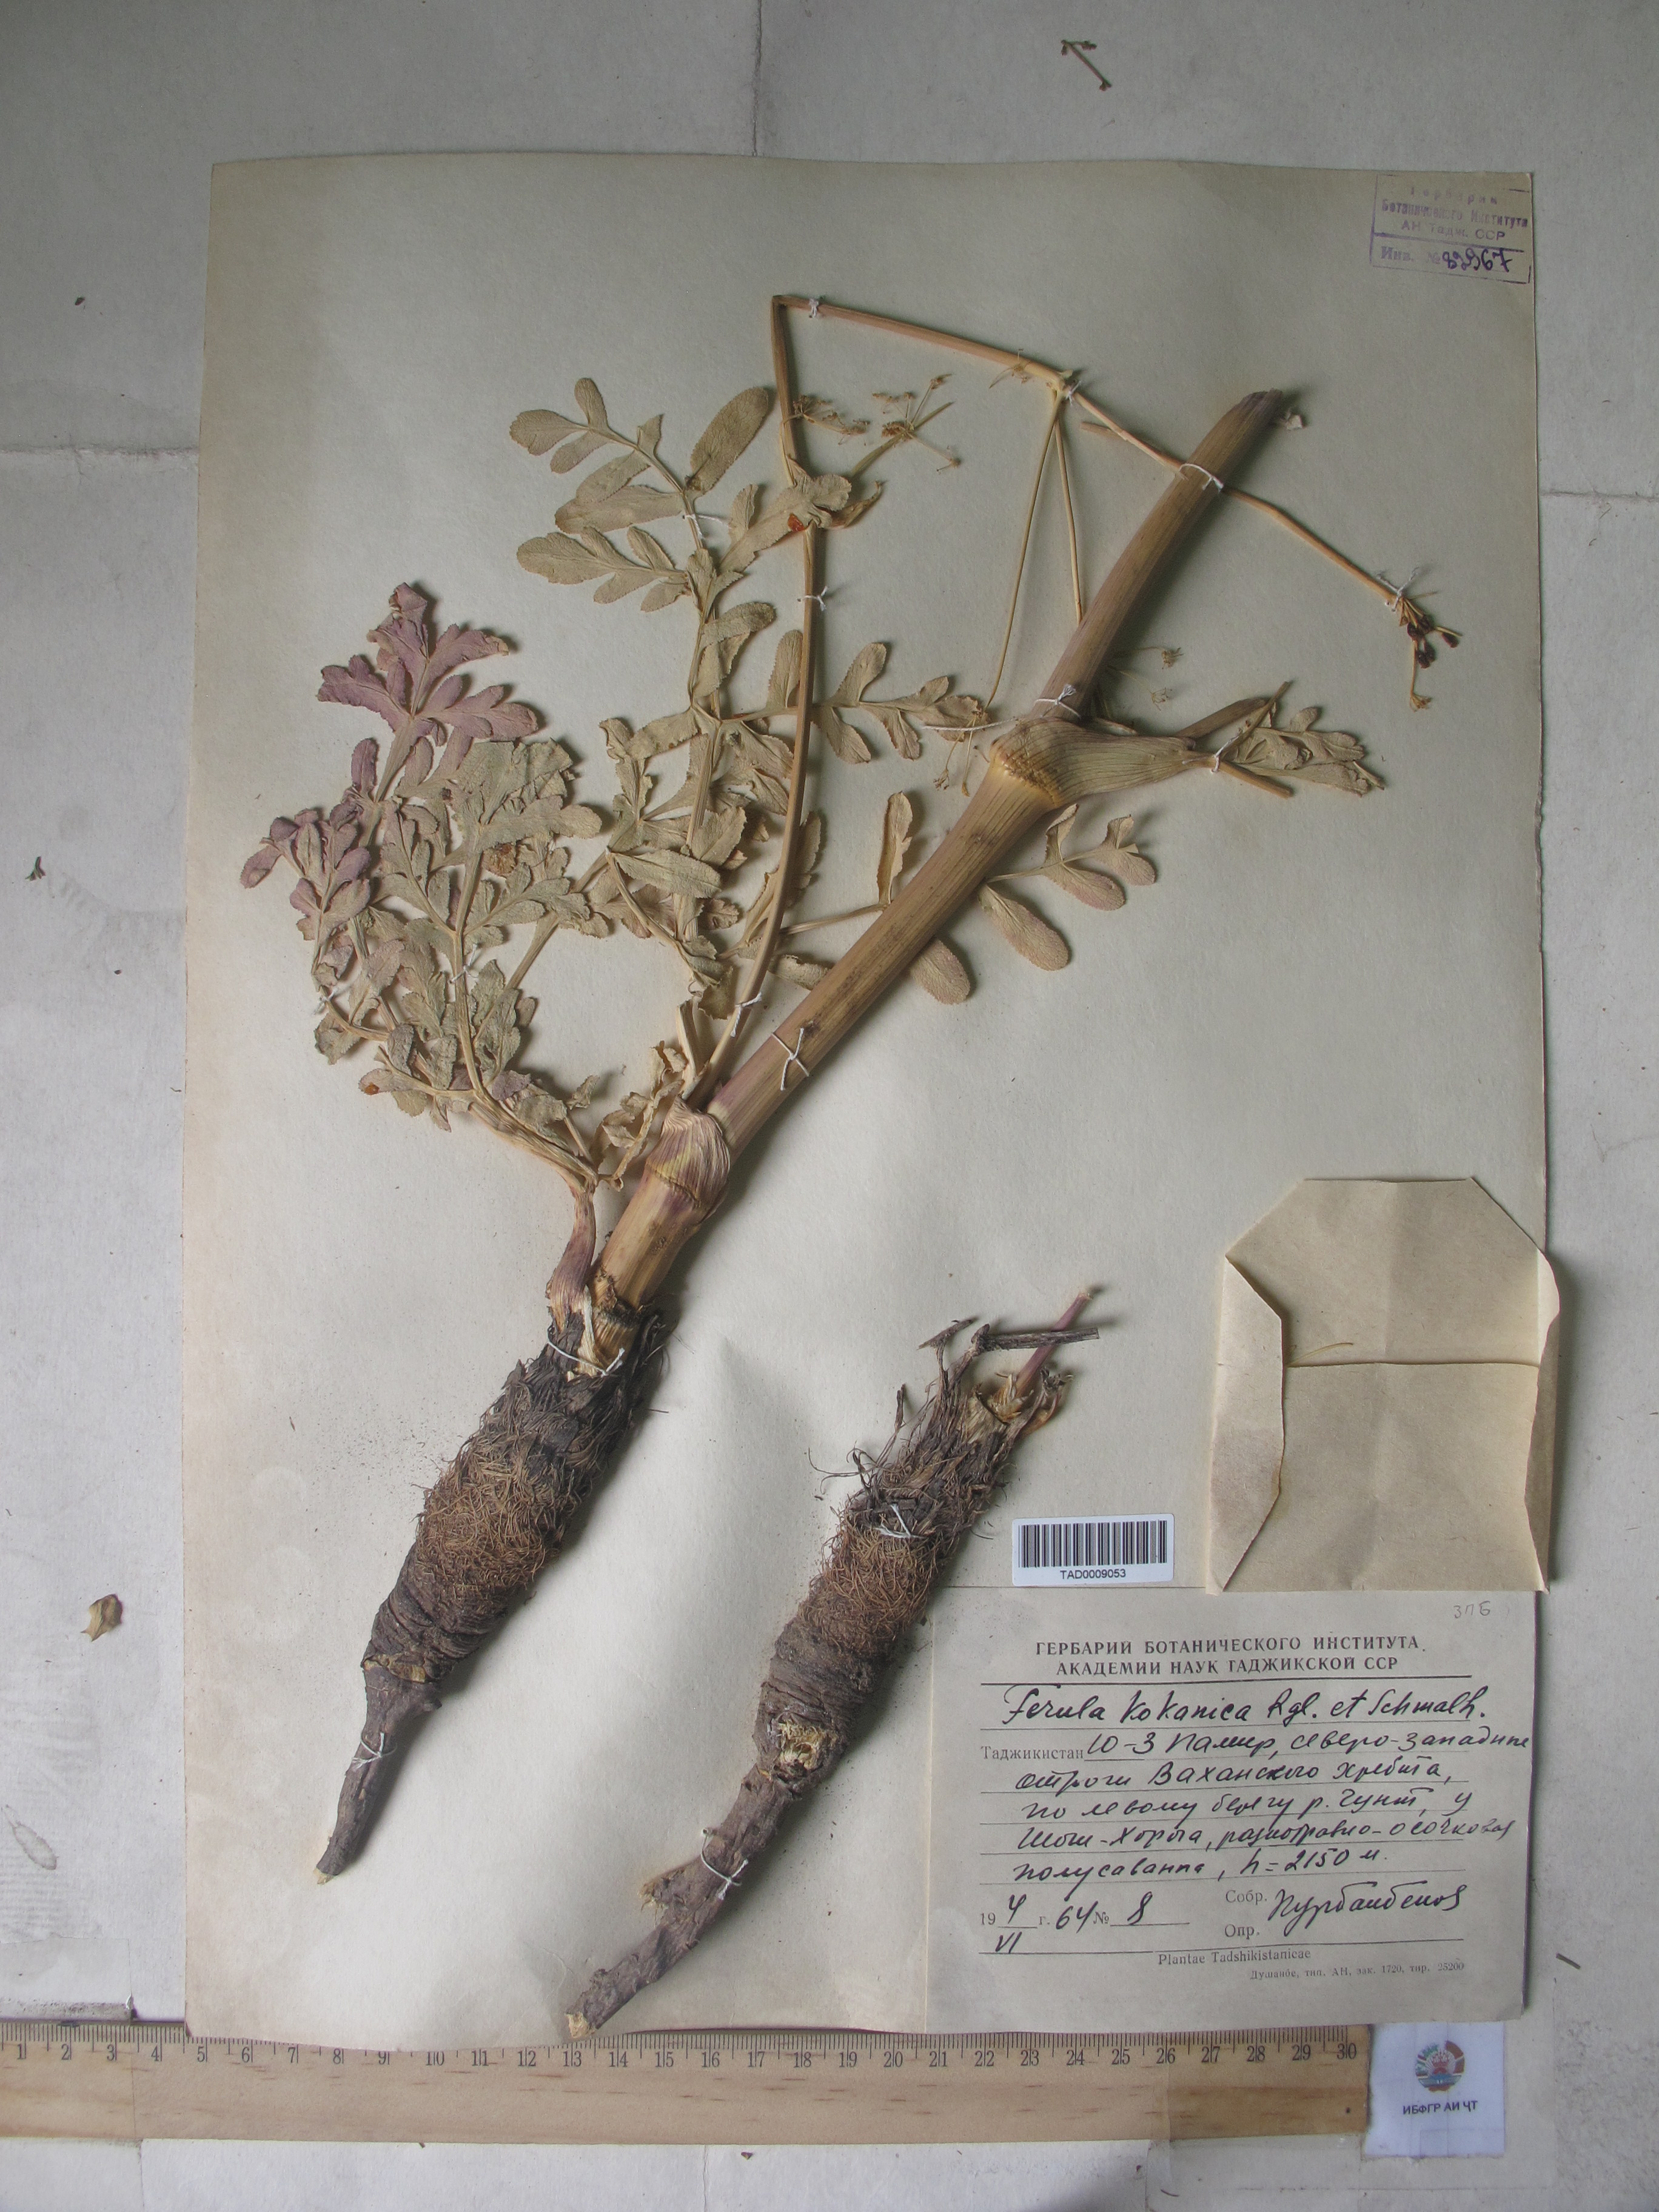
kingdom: Plantae
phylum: Tracheophyta
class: Magnoliopsida
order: Apiales
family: Apiaceae
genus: Ferula
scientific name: Ferula kokanica
